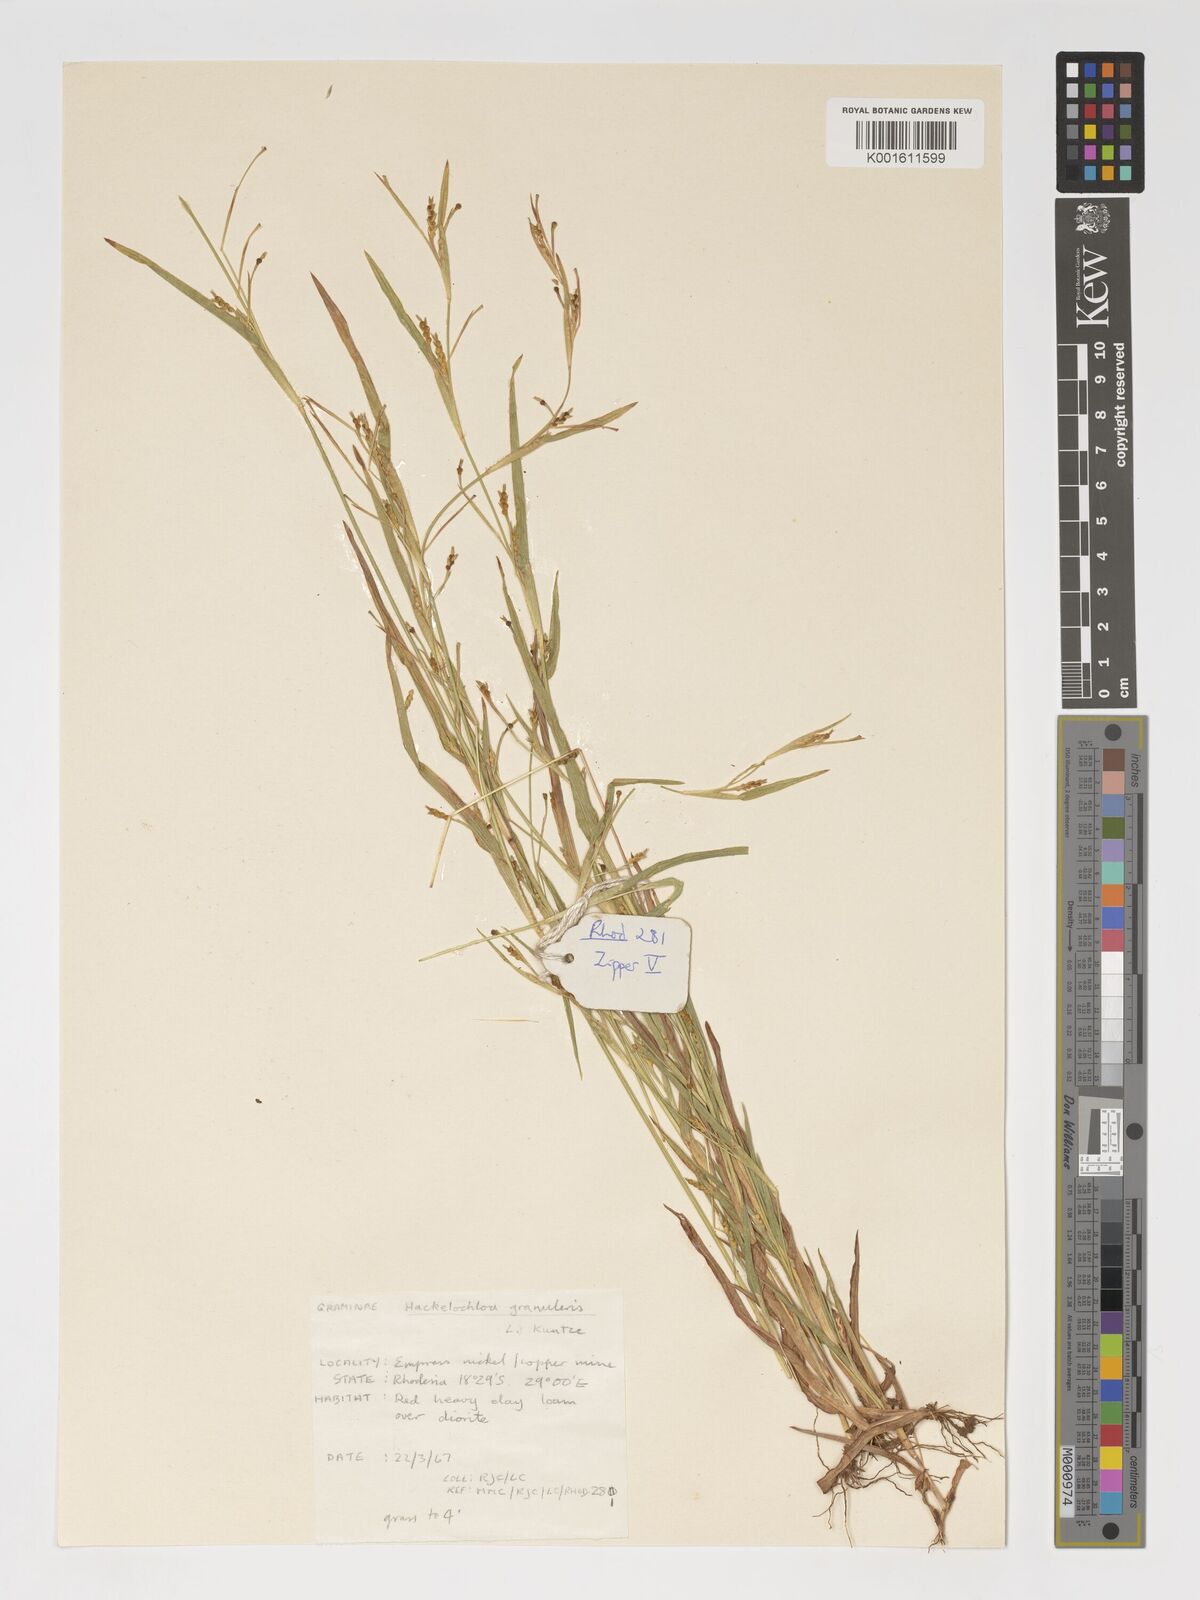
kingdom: Plantae
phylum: Tracheophyta
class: Liliopsida
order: Poales
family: Poaceae
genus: Hackelochloa
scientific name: Hackelochloa granularis
